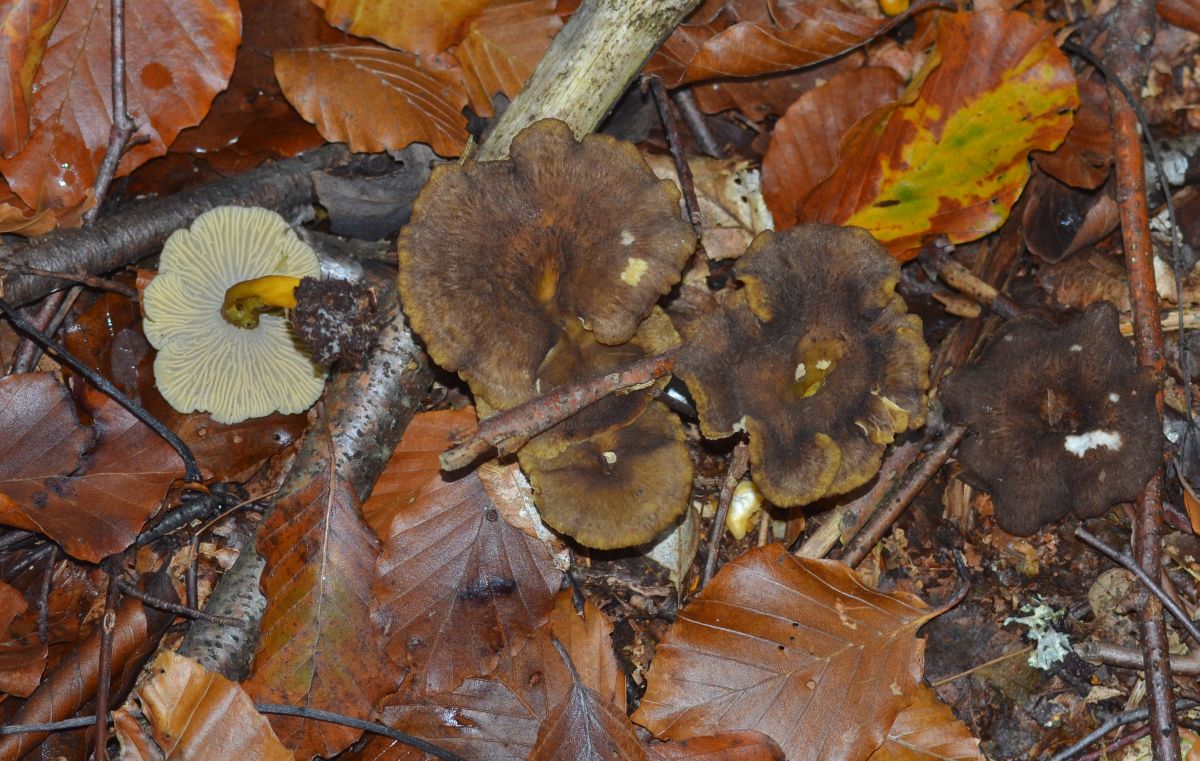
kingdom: Fungi
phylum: Basidiomycota
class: Agaricomycetes
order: Cantharellales
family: Hydnaceae
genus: Craterellus
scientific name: Craterellus tubaeformis
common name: tragt-kantarel
